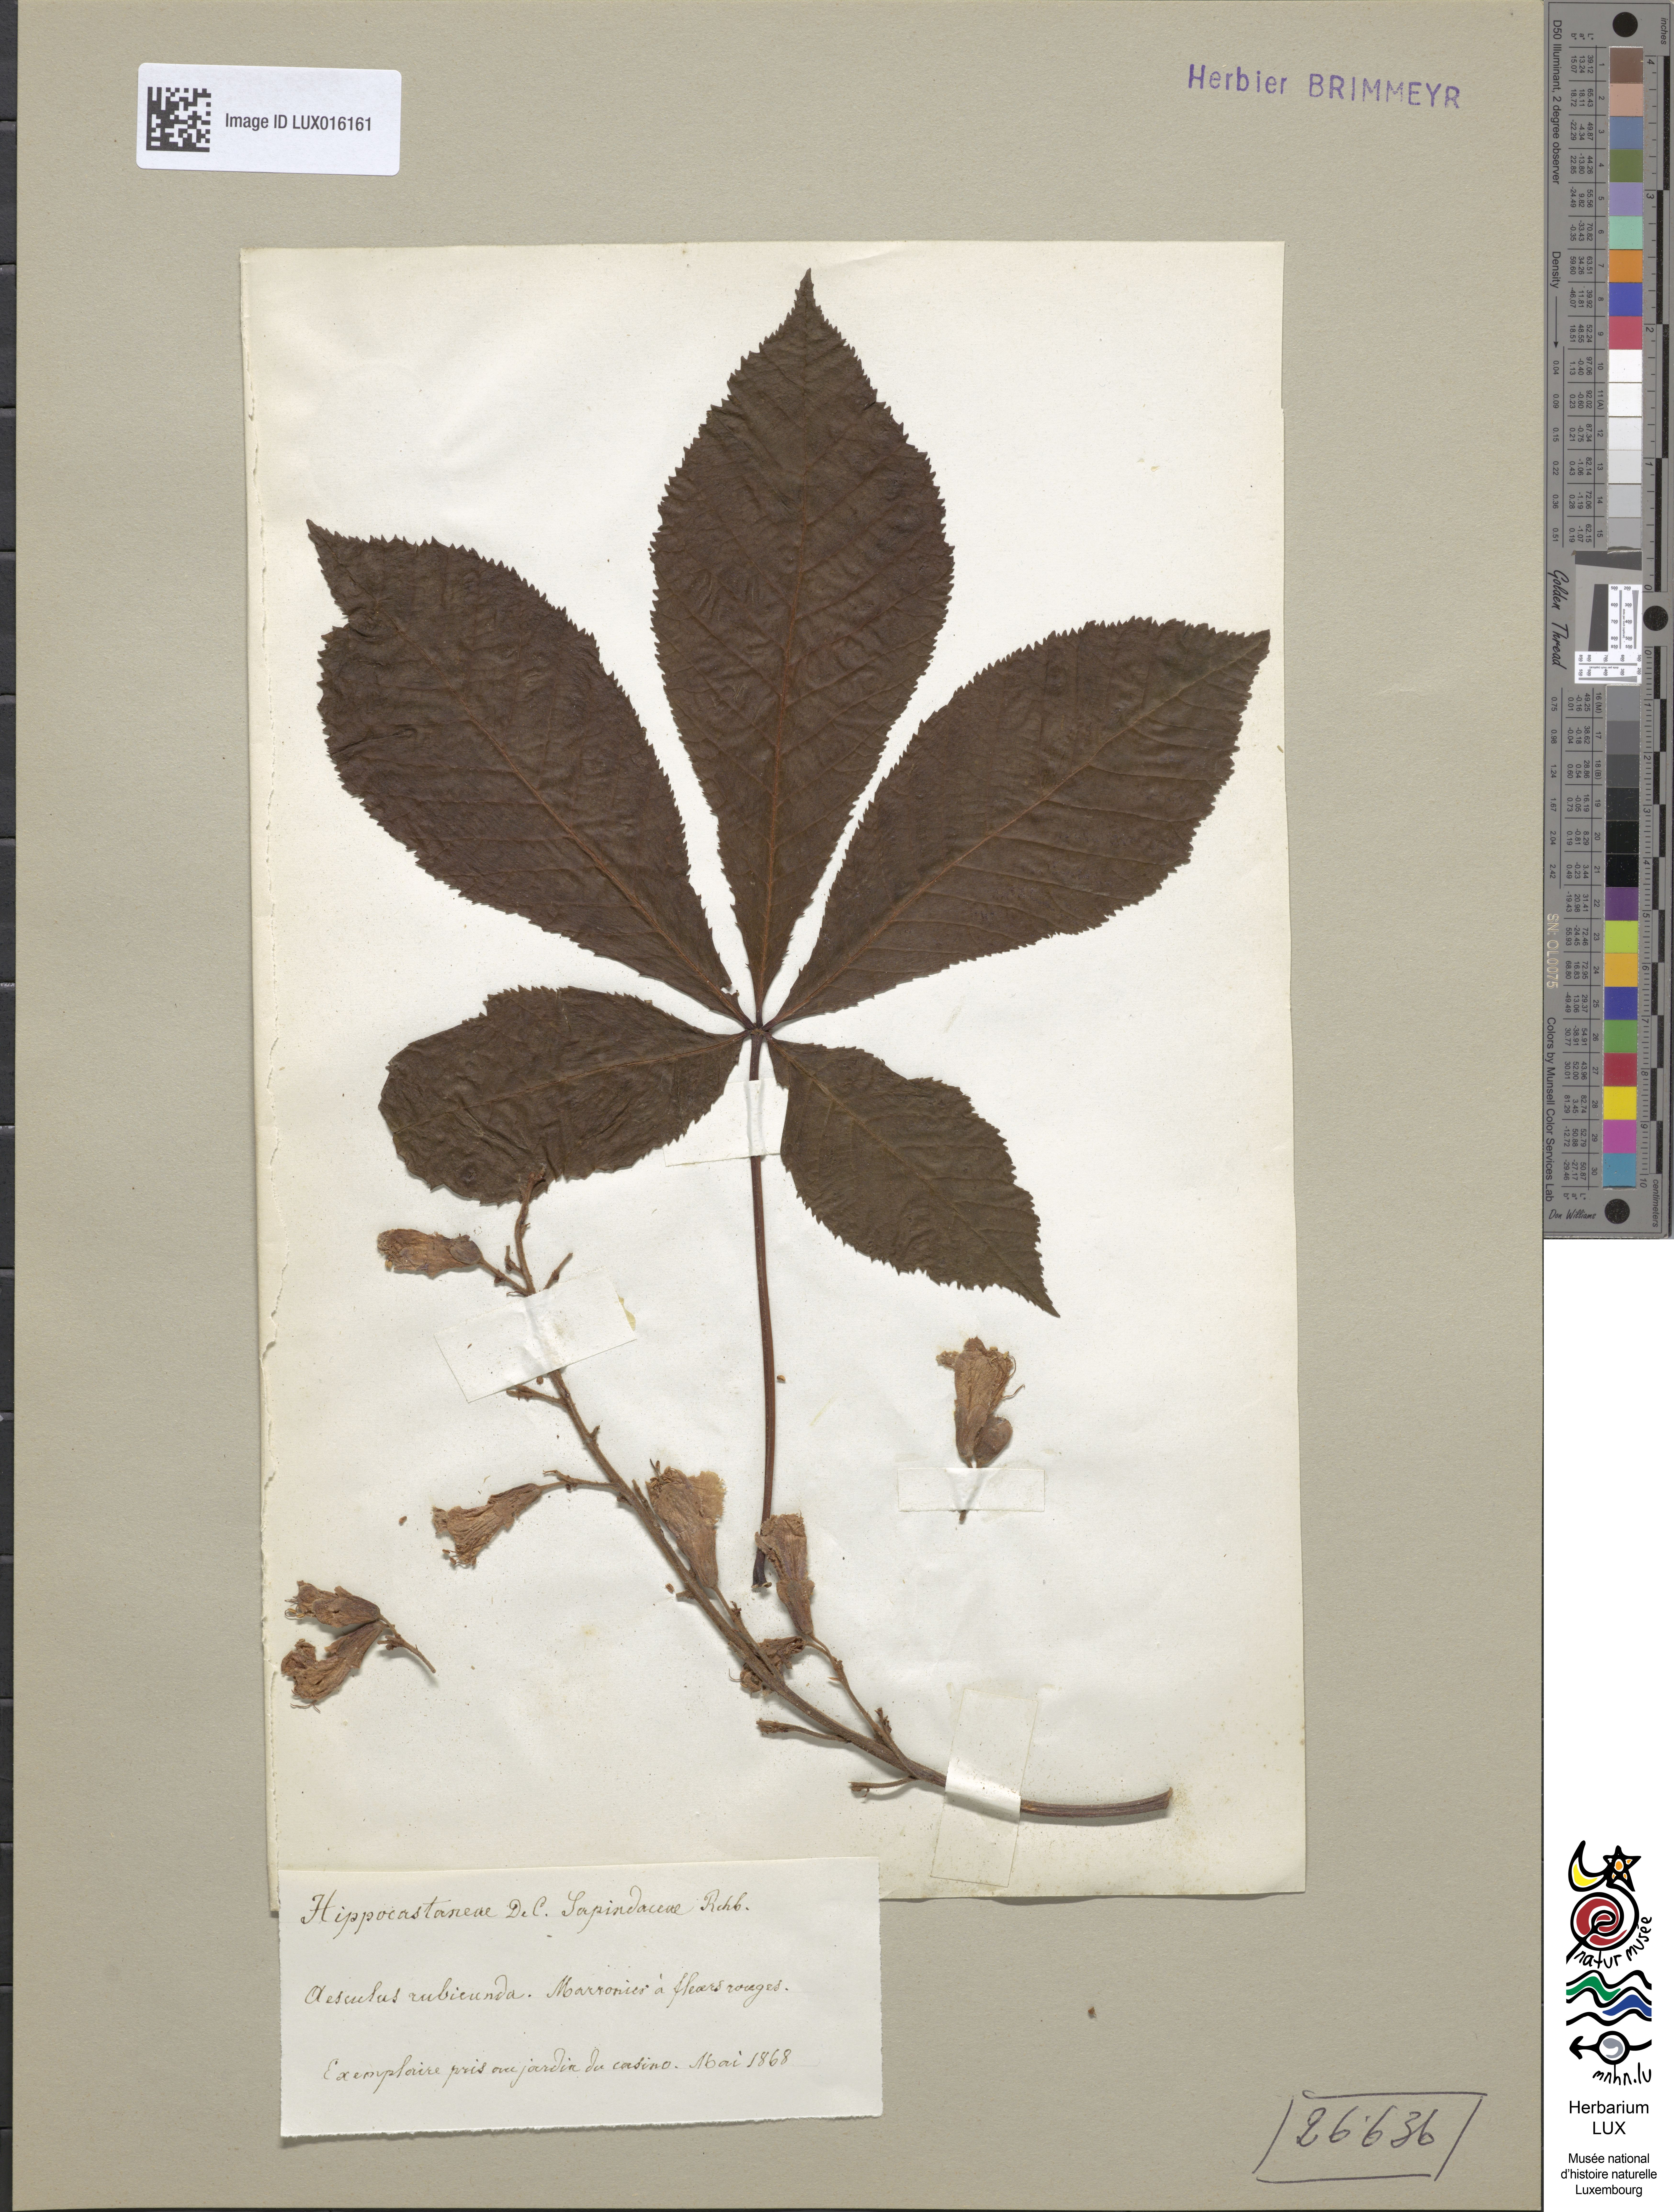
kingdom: Plantae
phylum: Tracheophyta
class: Magnoliopsida
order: Sapindales
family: Sapindaceae
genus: Aesculus
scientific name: Aesculus carnea
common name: Red horse-chestnut
